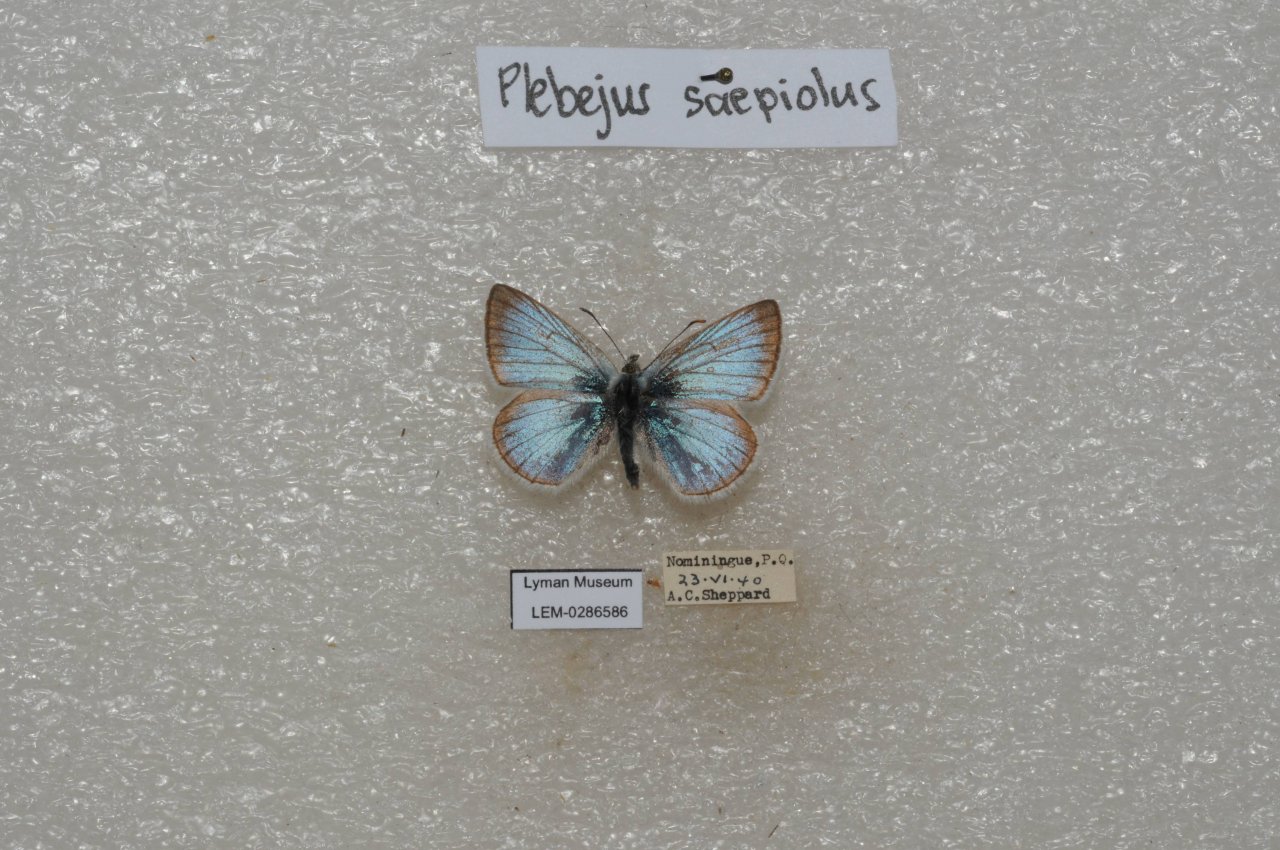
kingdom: Animalia
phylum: Arthropoda
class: Insecta
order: Lepidoptera
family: Lycaenidae
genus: Plebejus
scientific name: Plebejus saepiolus
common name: Greenish Blue
